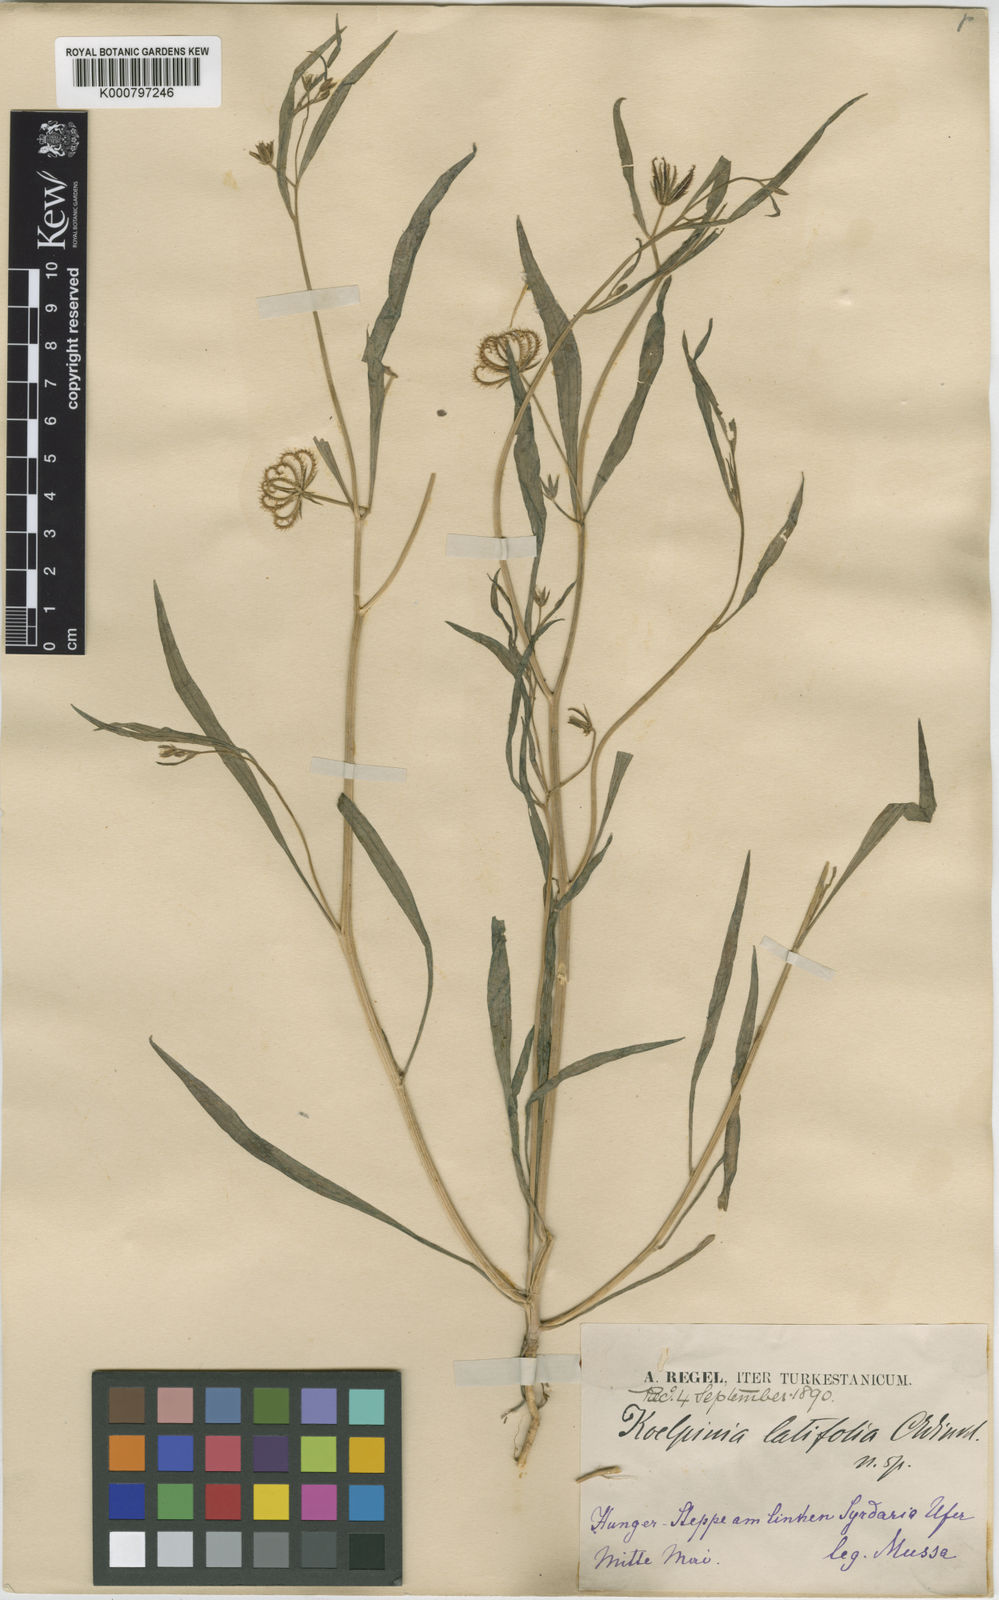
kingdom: Plantae
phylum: Tracheophyta
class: Magnoliopsida
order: Asterales
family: Asteraceae
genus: Koelpinia
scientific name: Koelpinia linearis
